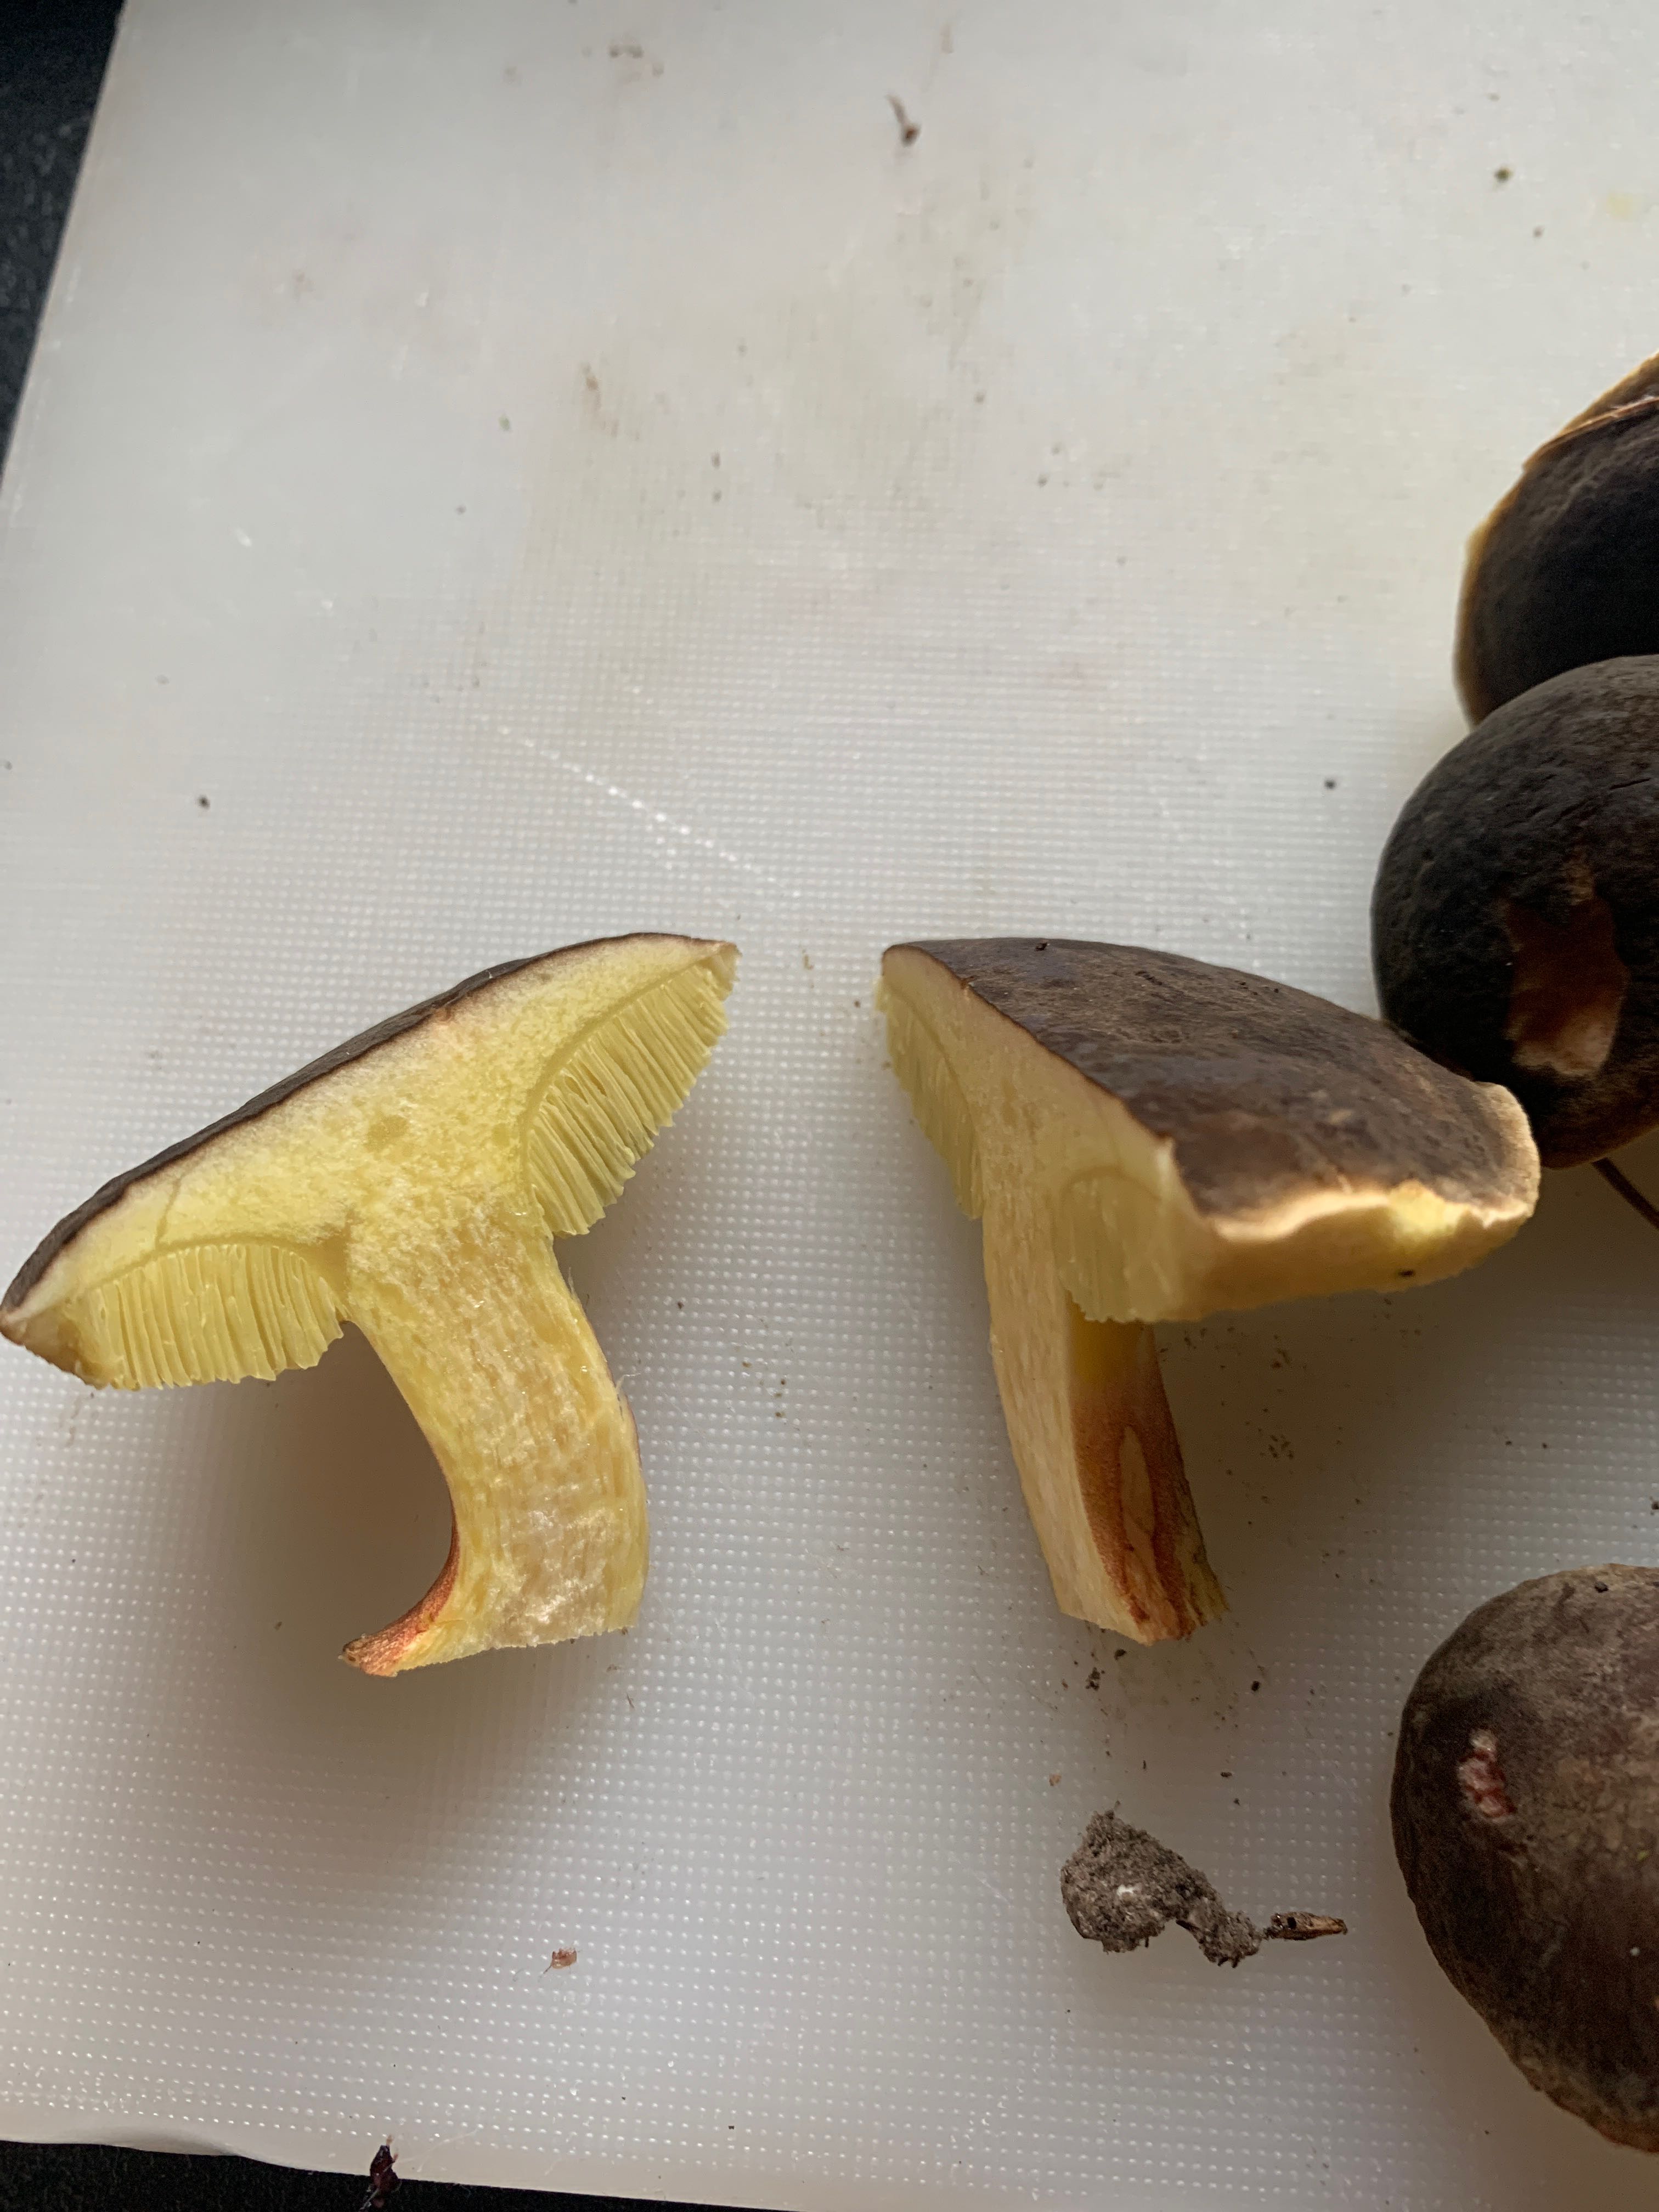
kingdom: Fungi
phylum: Basidiomycota
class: Agaricomycetes
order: Boletales
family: Boletaceae
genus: Xerocomellus
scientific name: Xerocomellus pruinatus
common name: dugget rørhat
